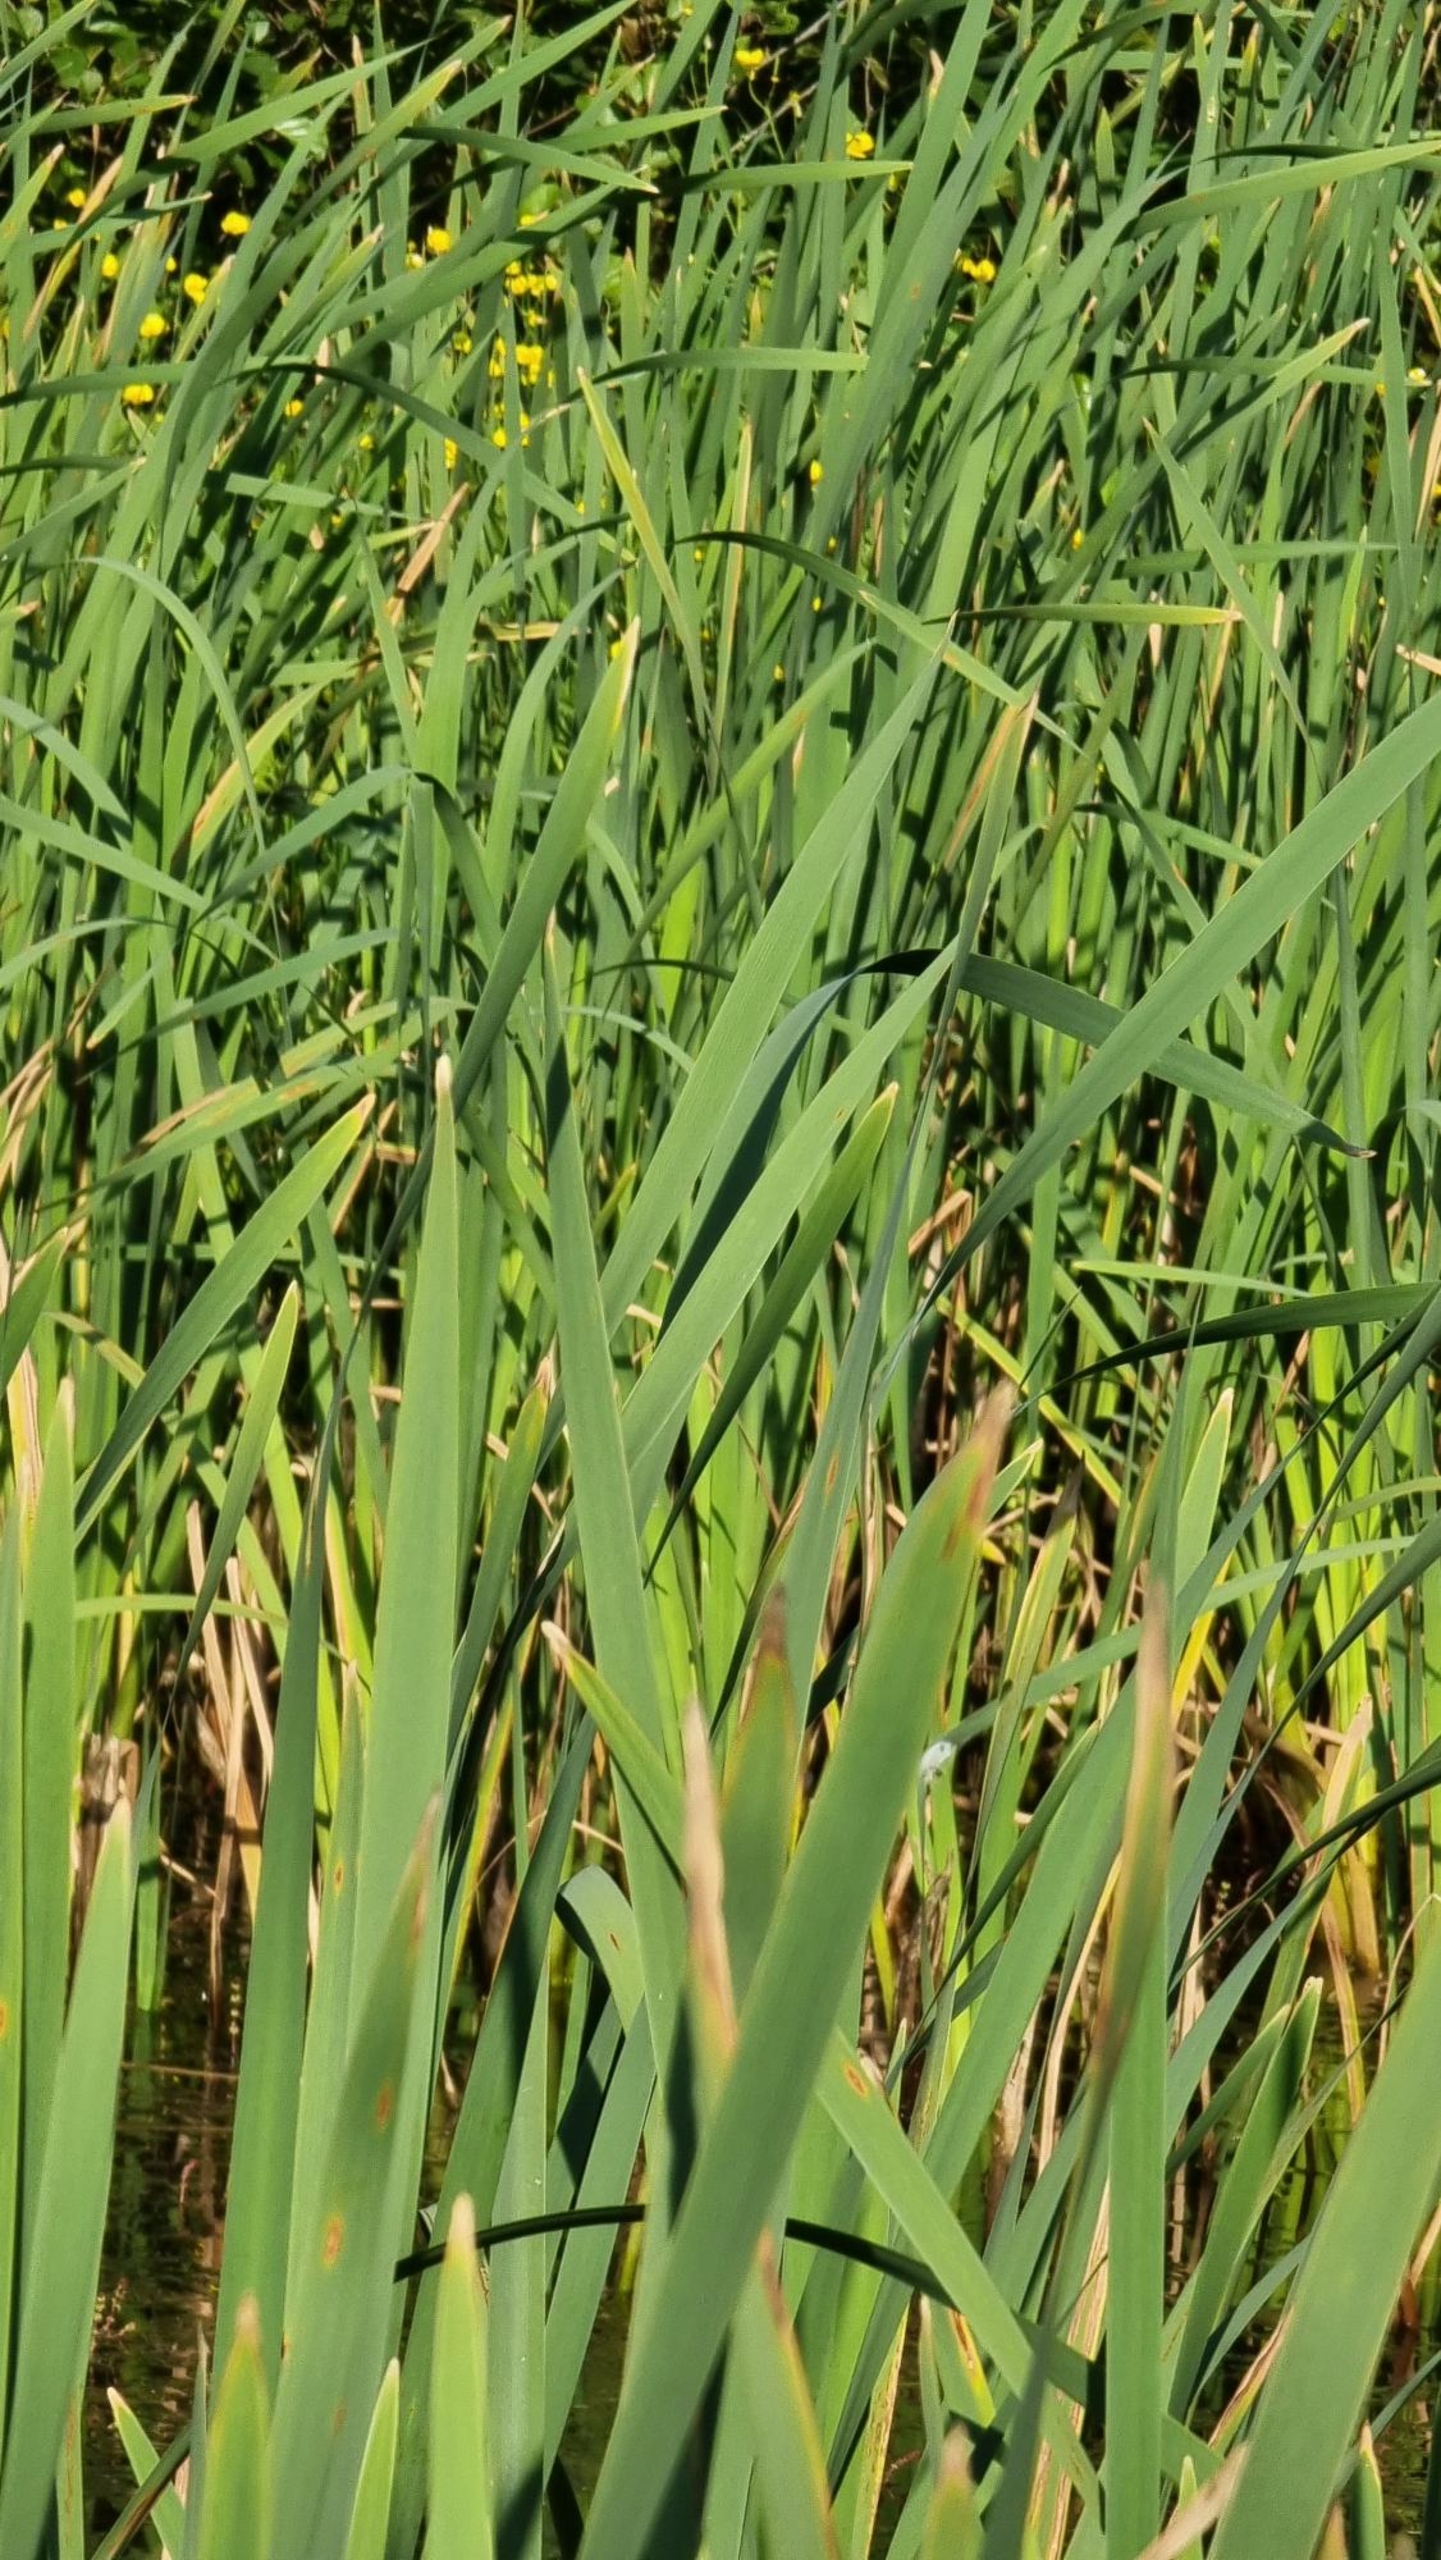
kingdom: Plantae
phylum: Tracheophyta
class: Liliopsida
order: Poales
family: Typhaceae
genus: Typha
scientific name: Typha latifolia
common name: Bredbladet dunhammer
